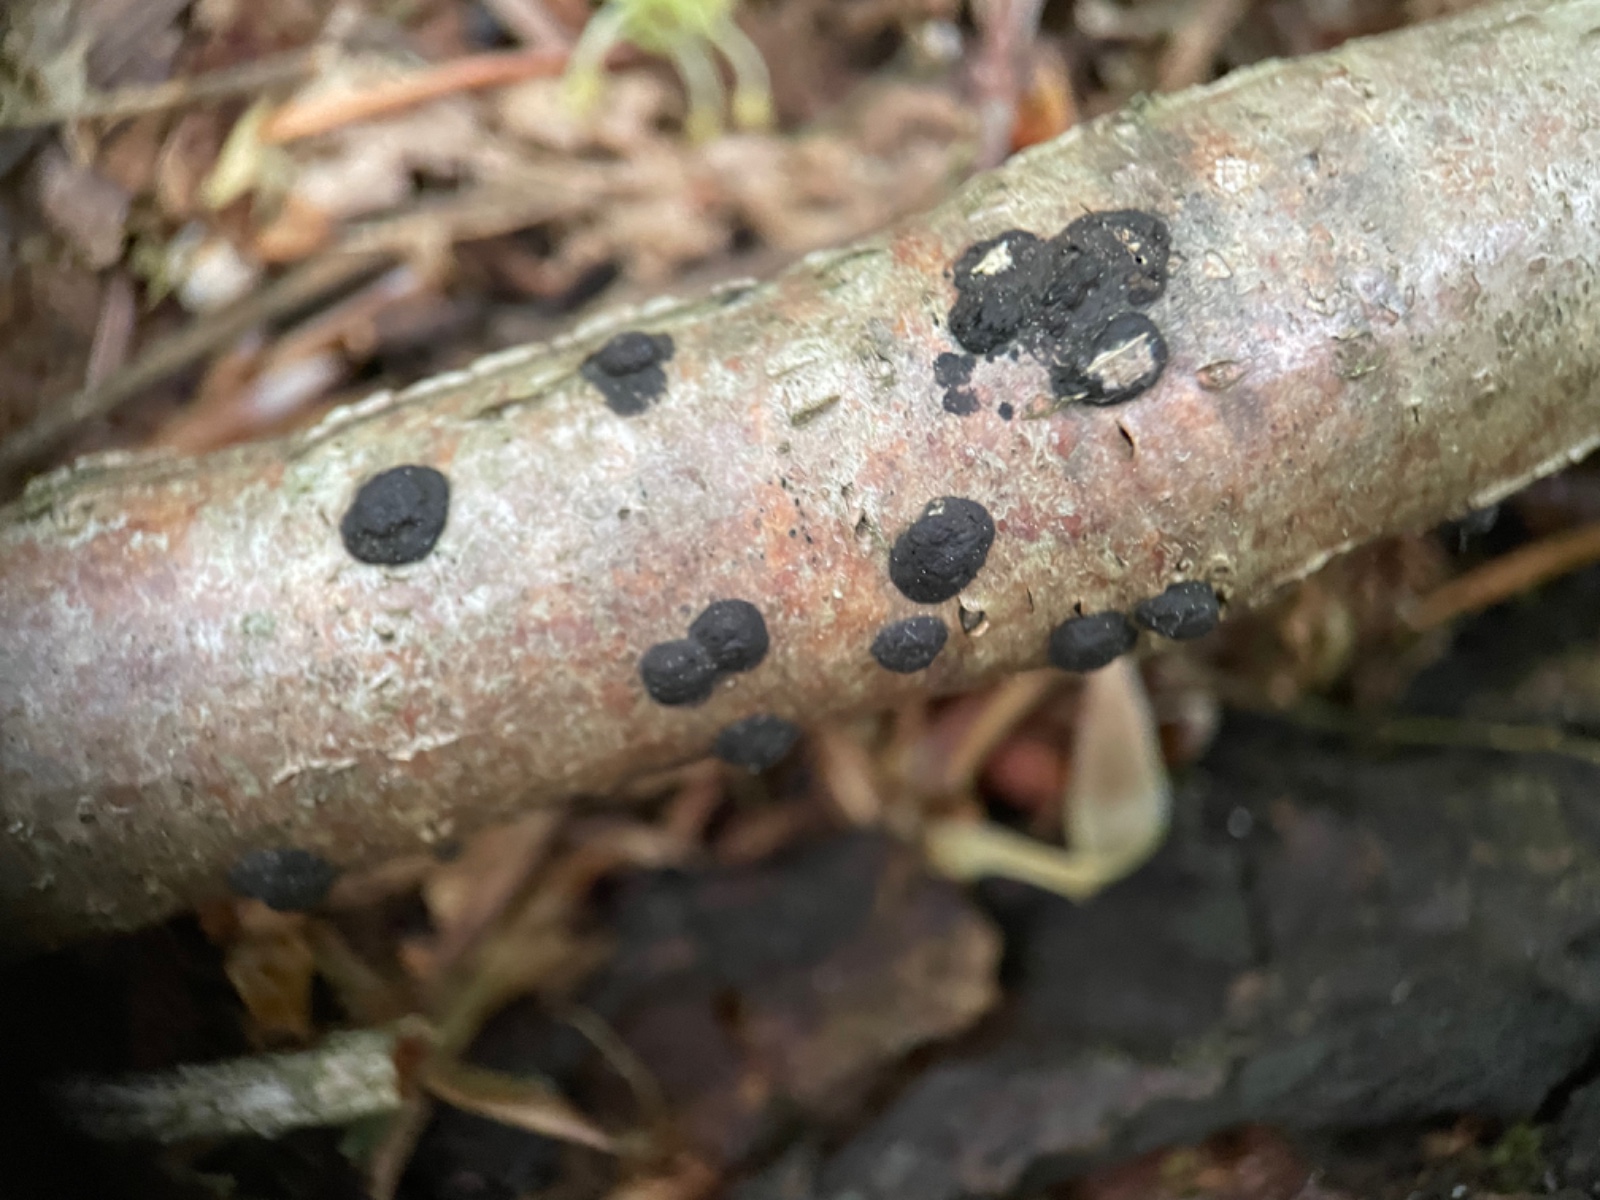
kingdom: Fungi
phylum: Ascomycota
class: Sordariomycetes
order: Xylariales
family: Hypoxylaceae
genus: Hypoxylon
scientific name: Hypoxylon fuscum
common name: kegleformet kulbær
